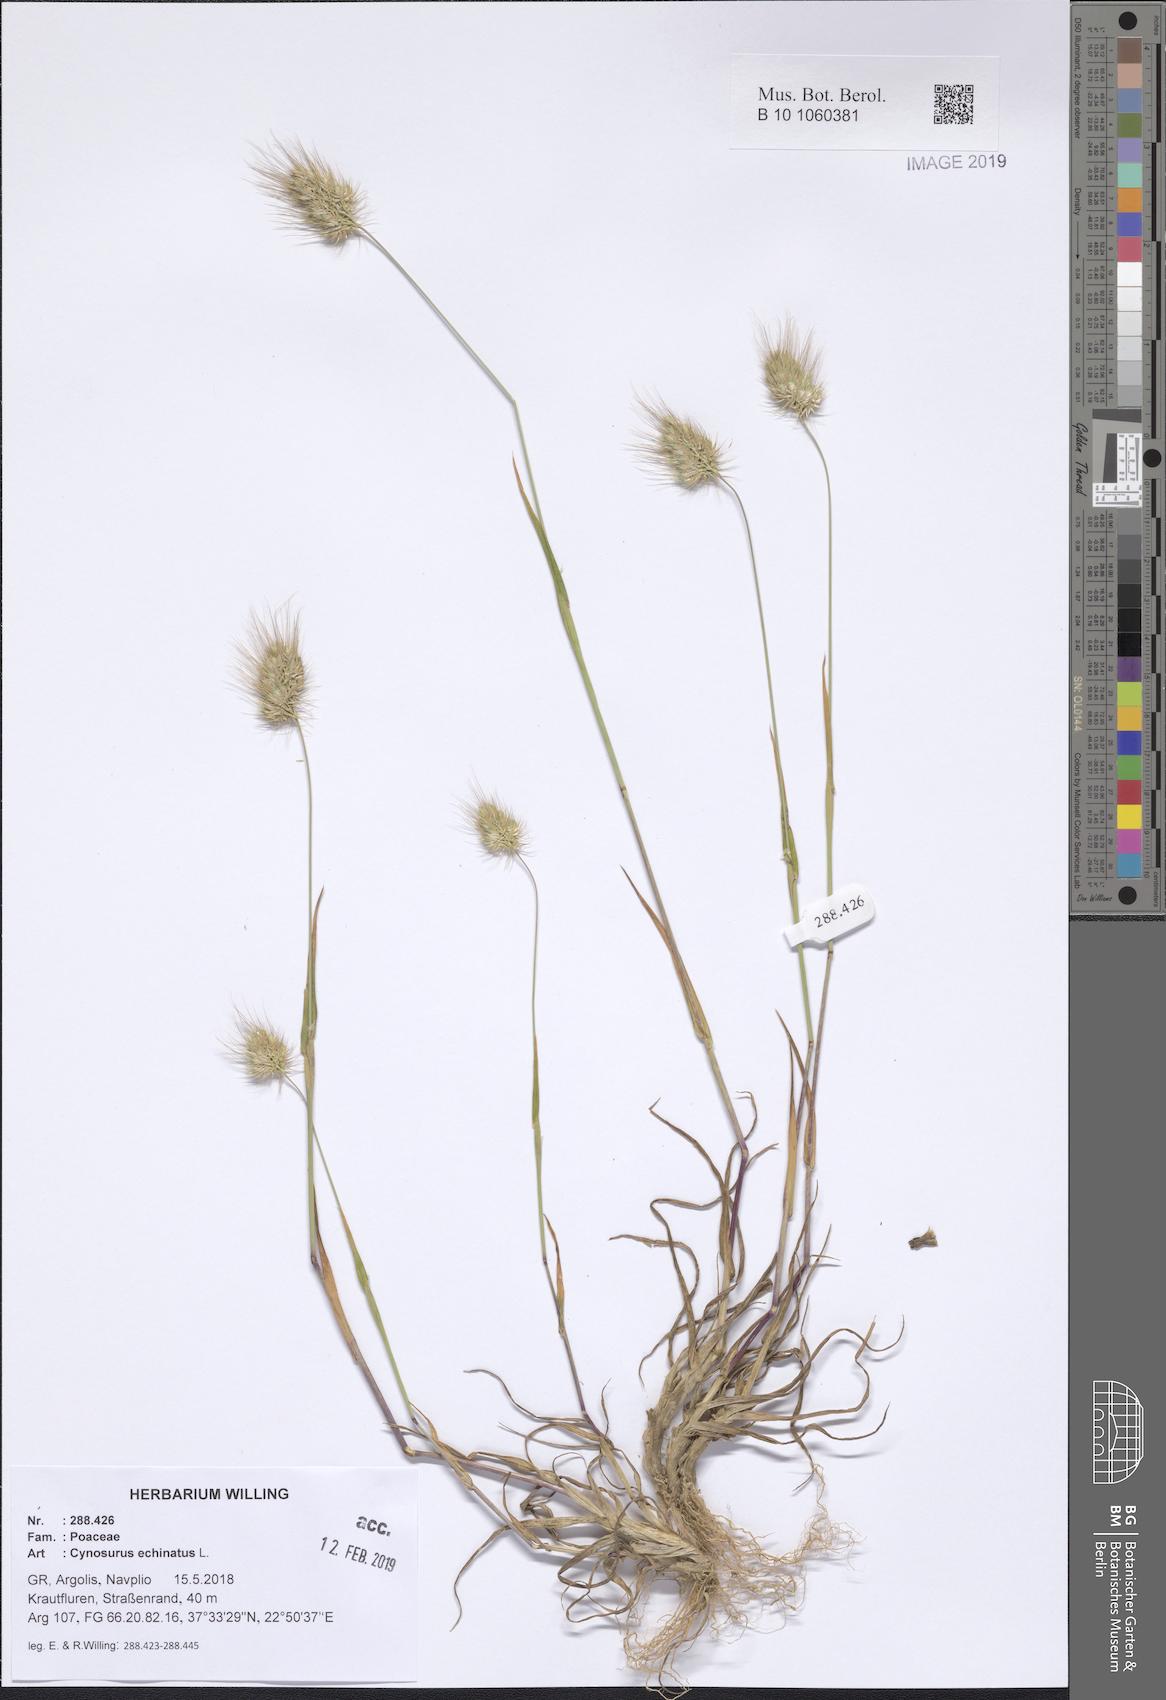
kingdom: Plantae
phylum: Tracheophyta
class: Liliopsida
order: Poales
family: Poaceae
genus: Cynosurus
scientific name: Cynosurus echinatus
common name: Rough dog's-tail
